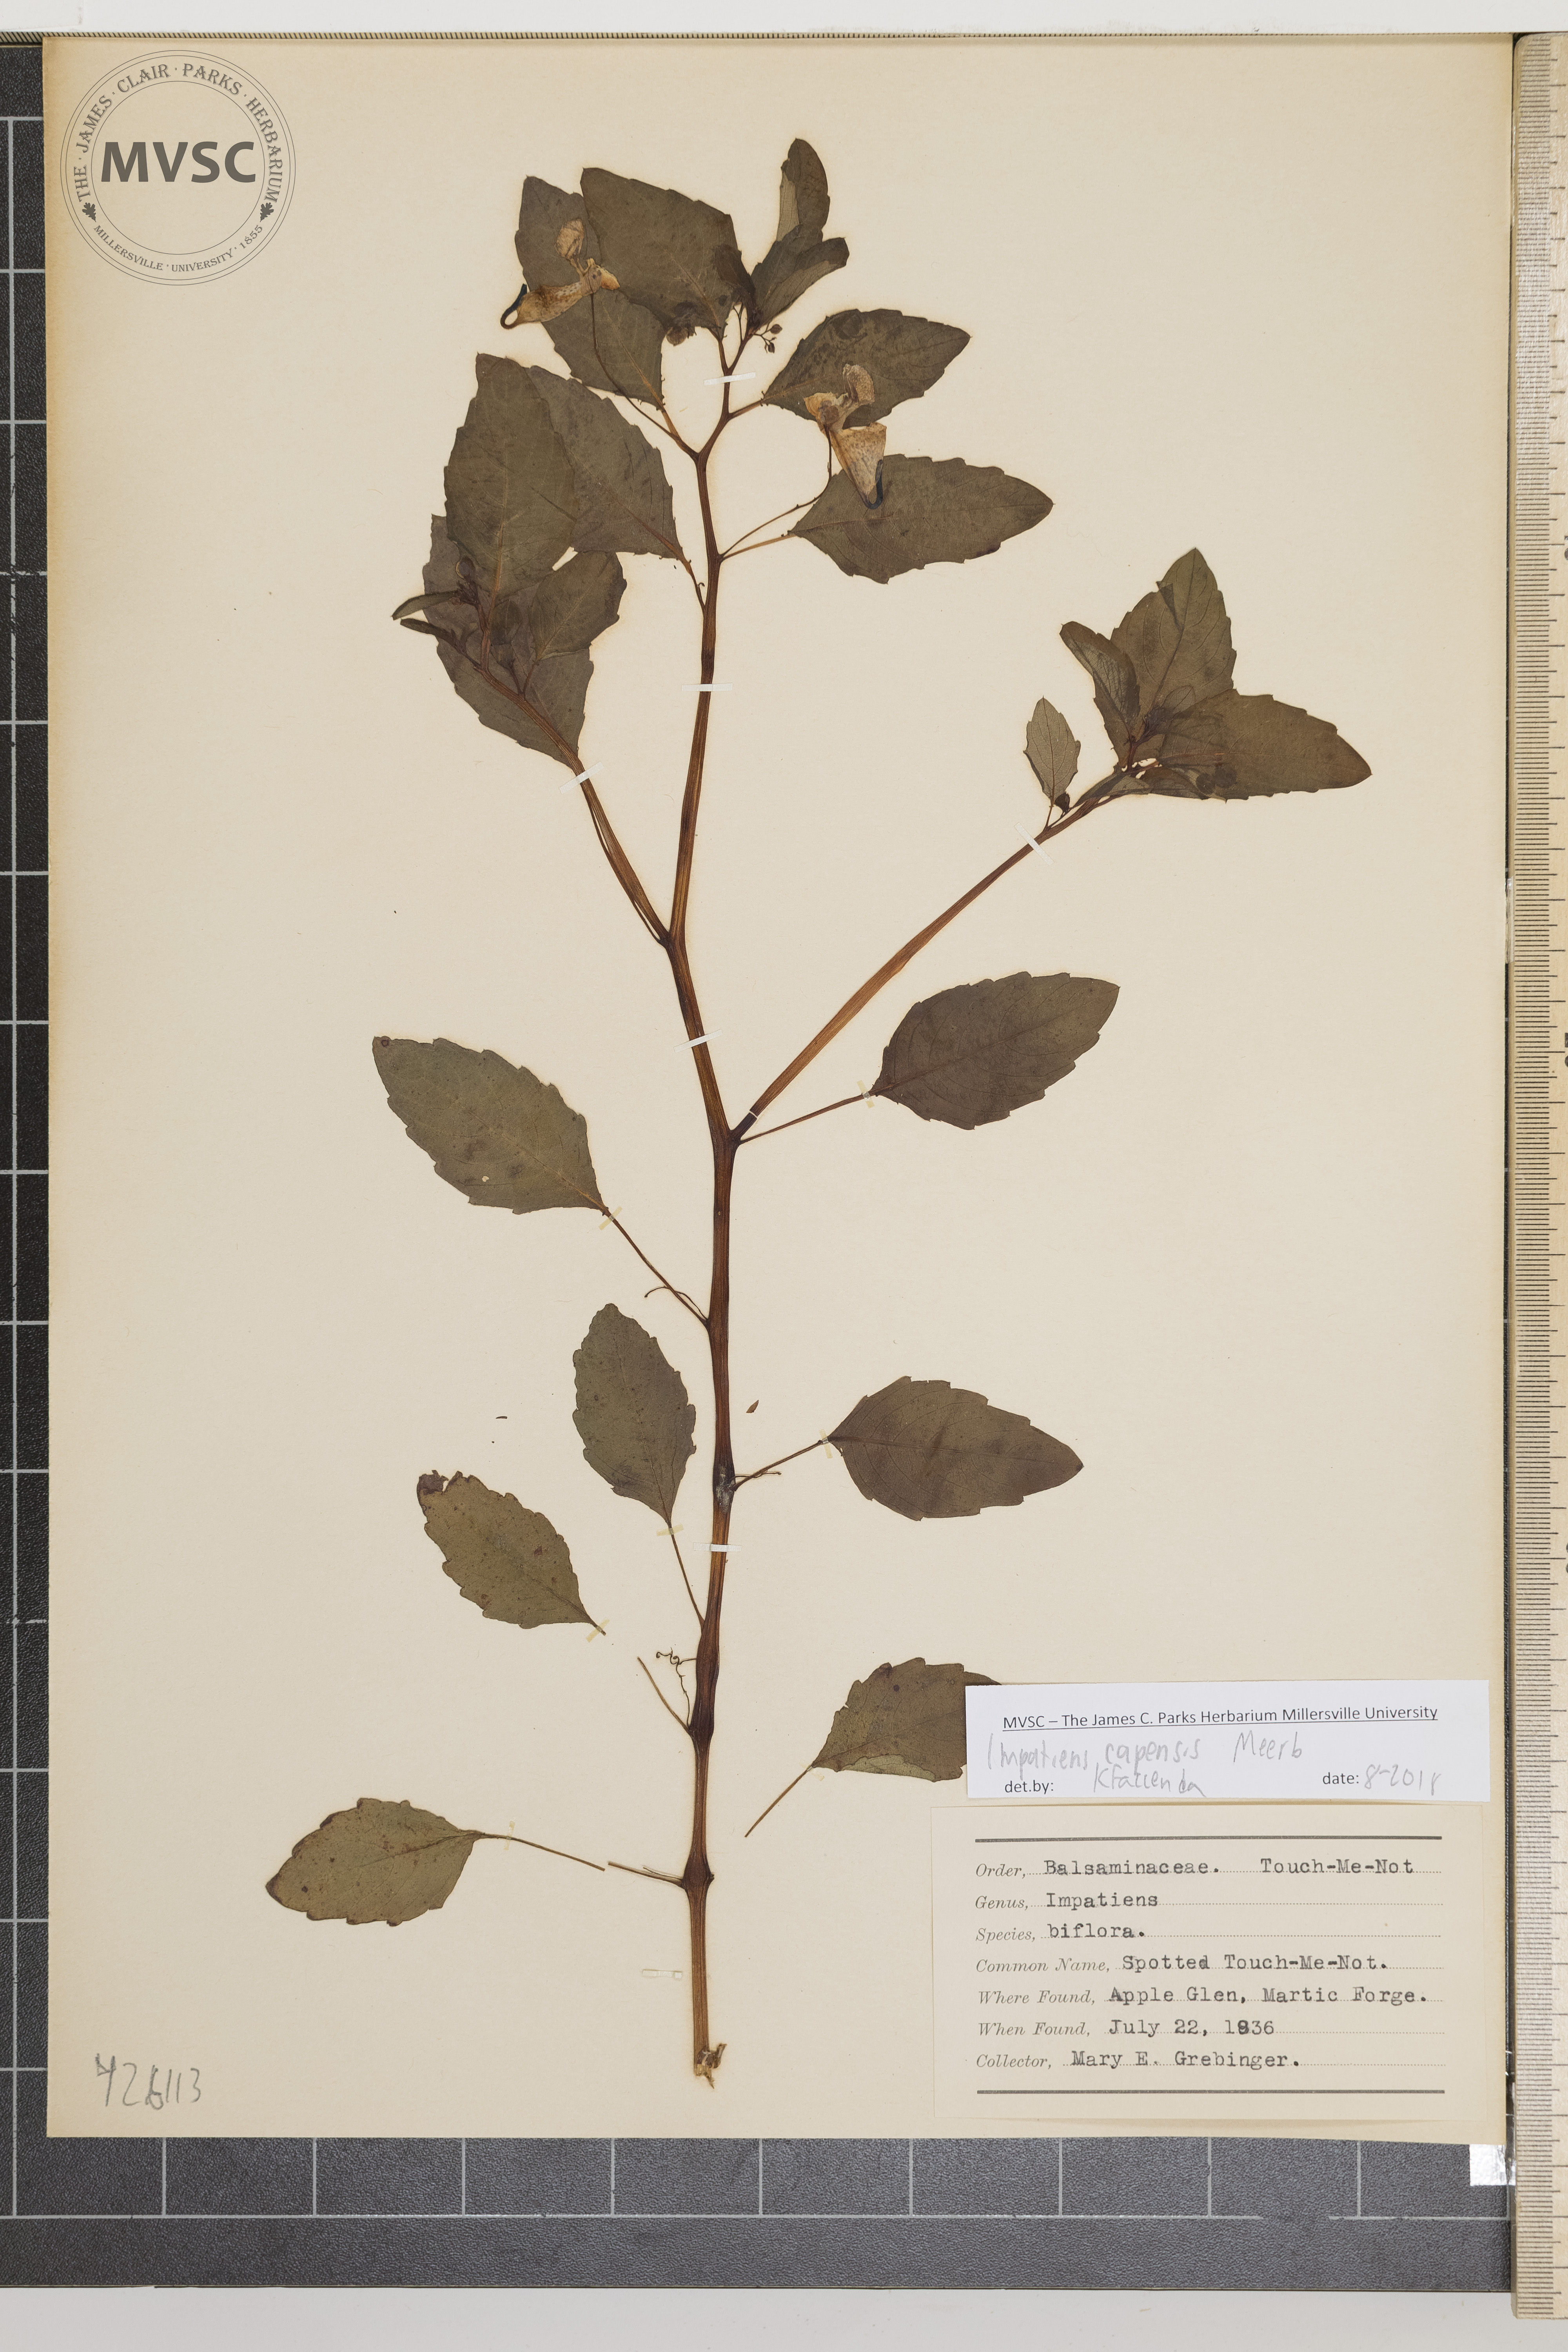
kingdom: Plantae
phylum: Tracheophyta
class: Magnoliopsida
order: Ericales
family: Balsaminaceae
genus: Impatiens
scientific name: Impatiens capensis
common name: Spotted touch-me-not
